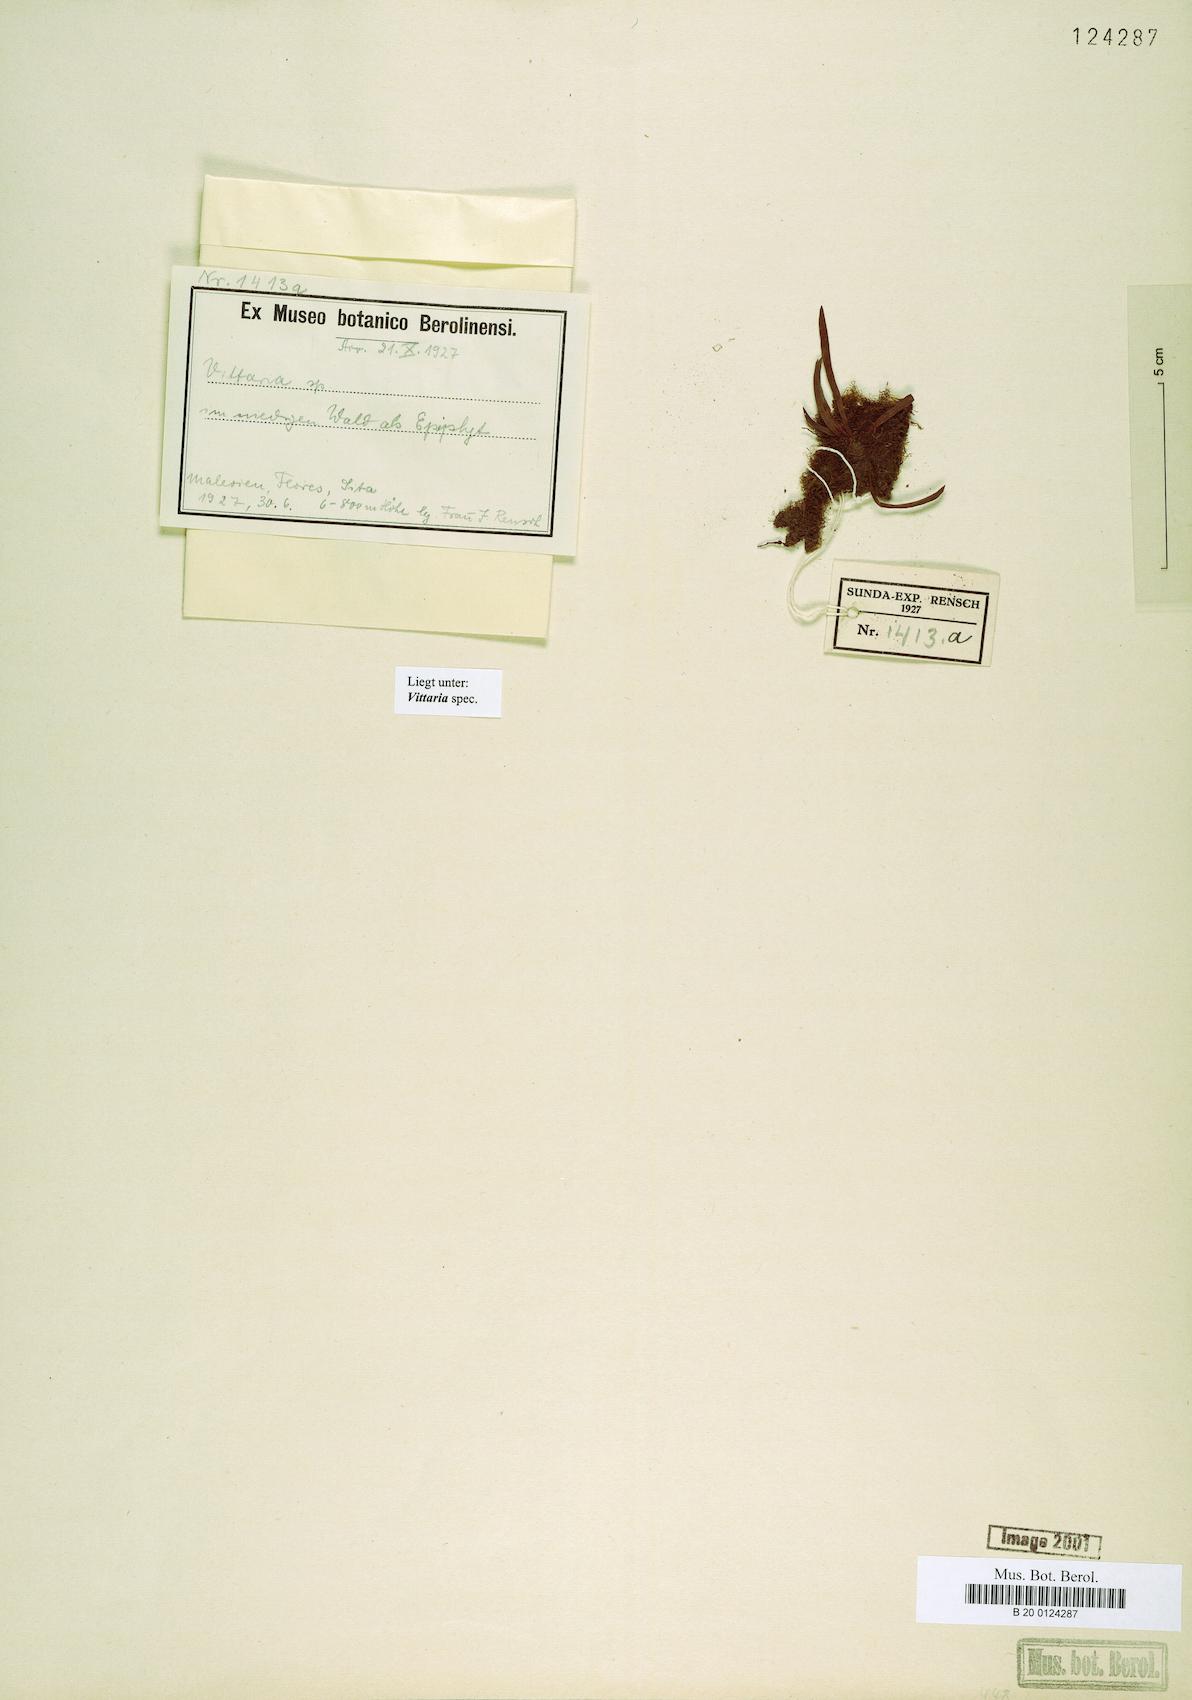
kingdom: Plantae
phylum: Tracheophyta
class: Polypodiopsida
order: Polypodiales
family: Pteridaceae
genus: Vittaria
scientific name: Vittaria
